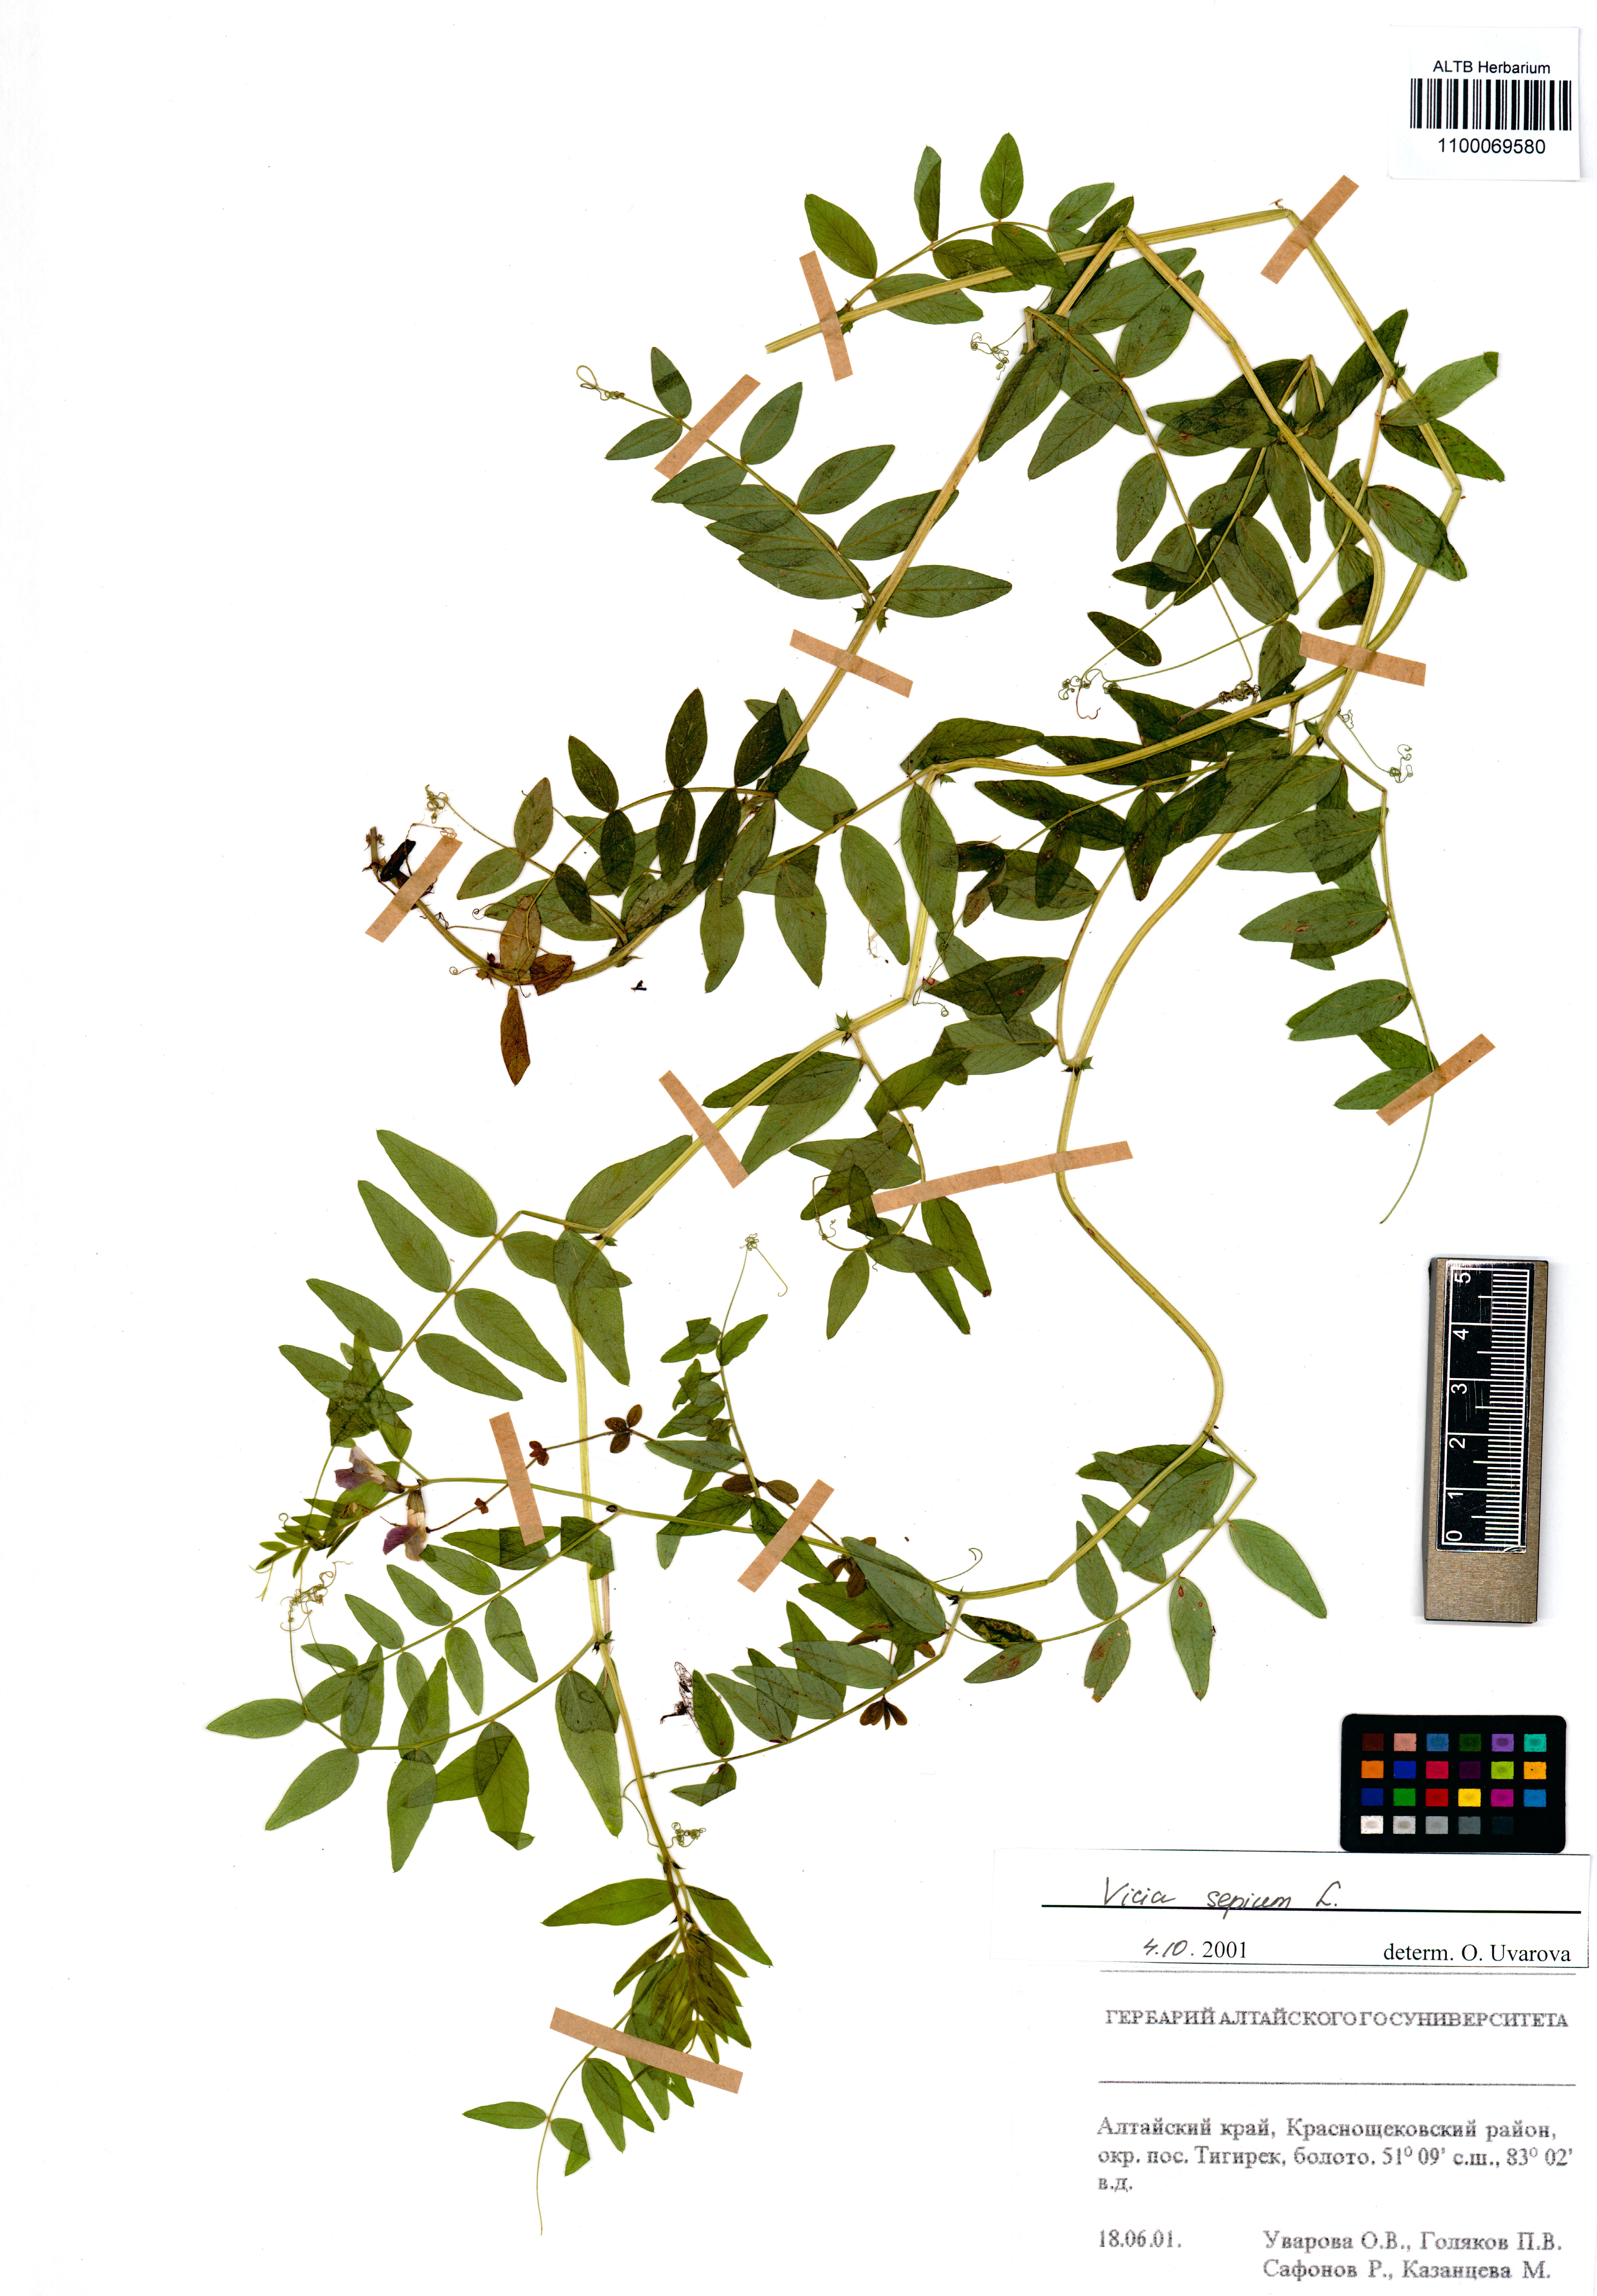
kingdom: Plantae
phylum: Tracheophyta
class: Magnoliopsida
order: Fabales
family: Fabaceae
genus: Vicia
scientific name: Vicia sepium
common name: Bush vetch
